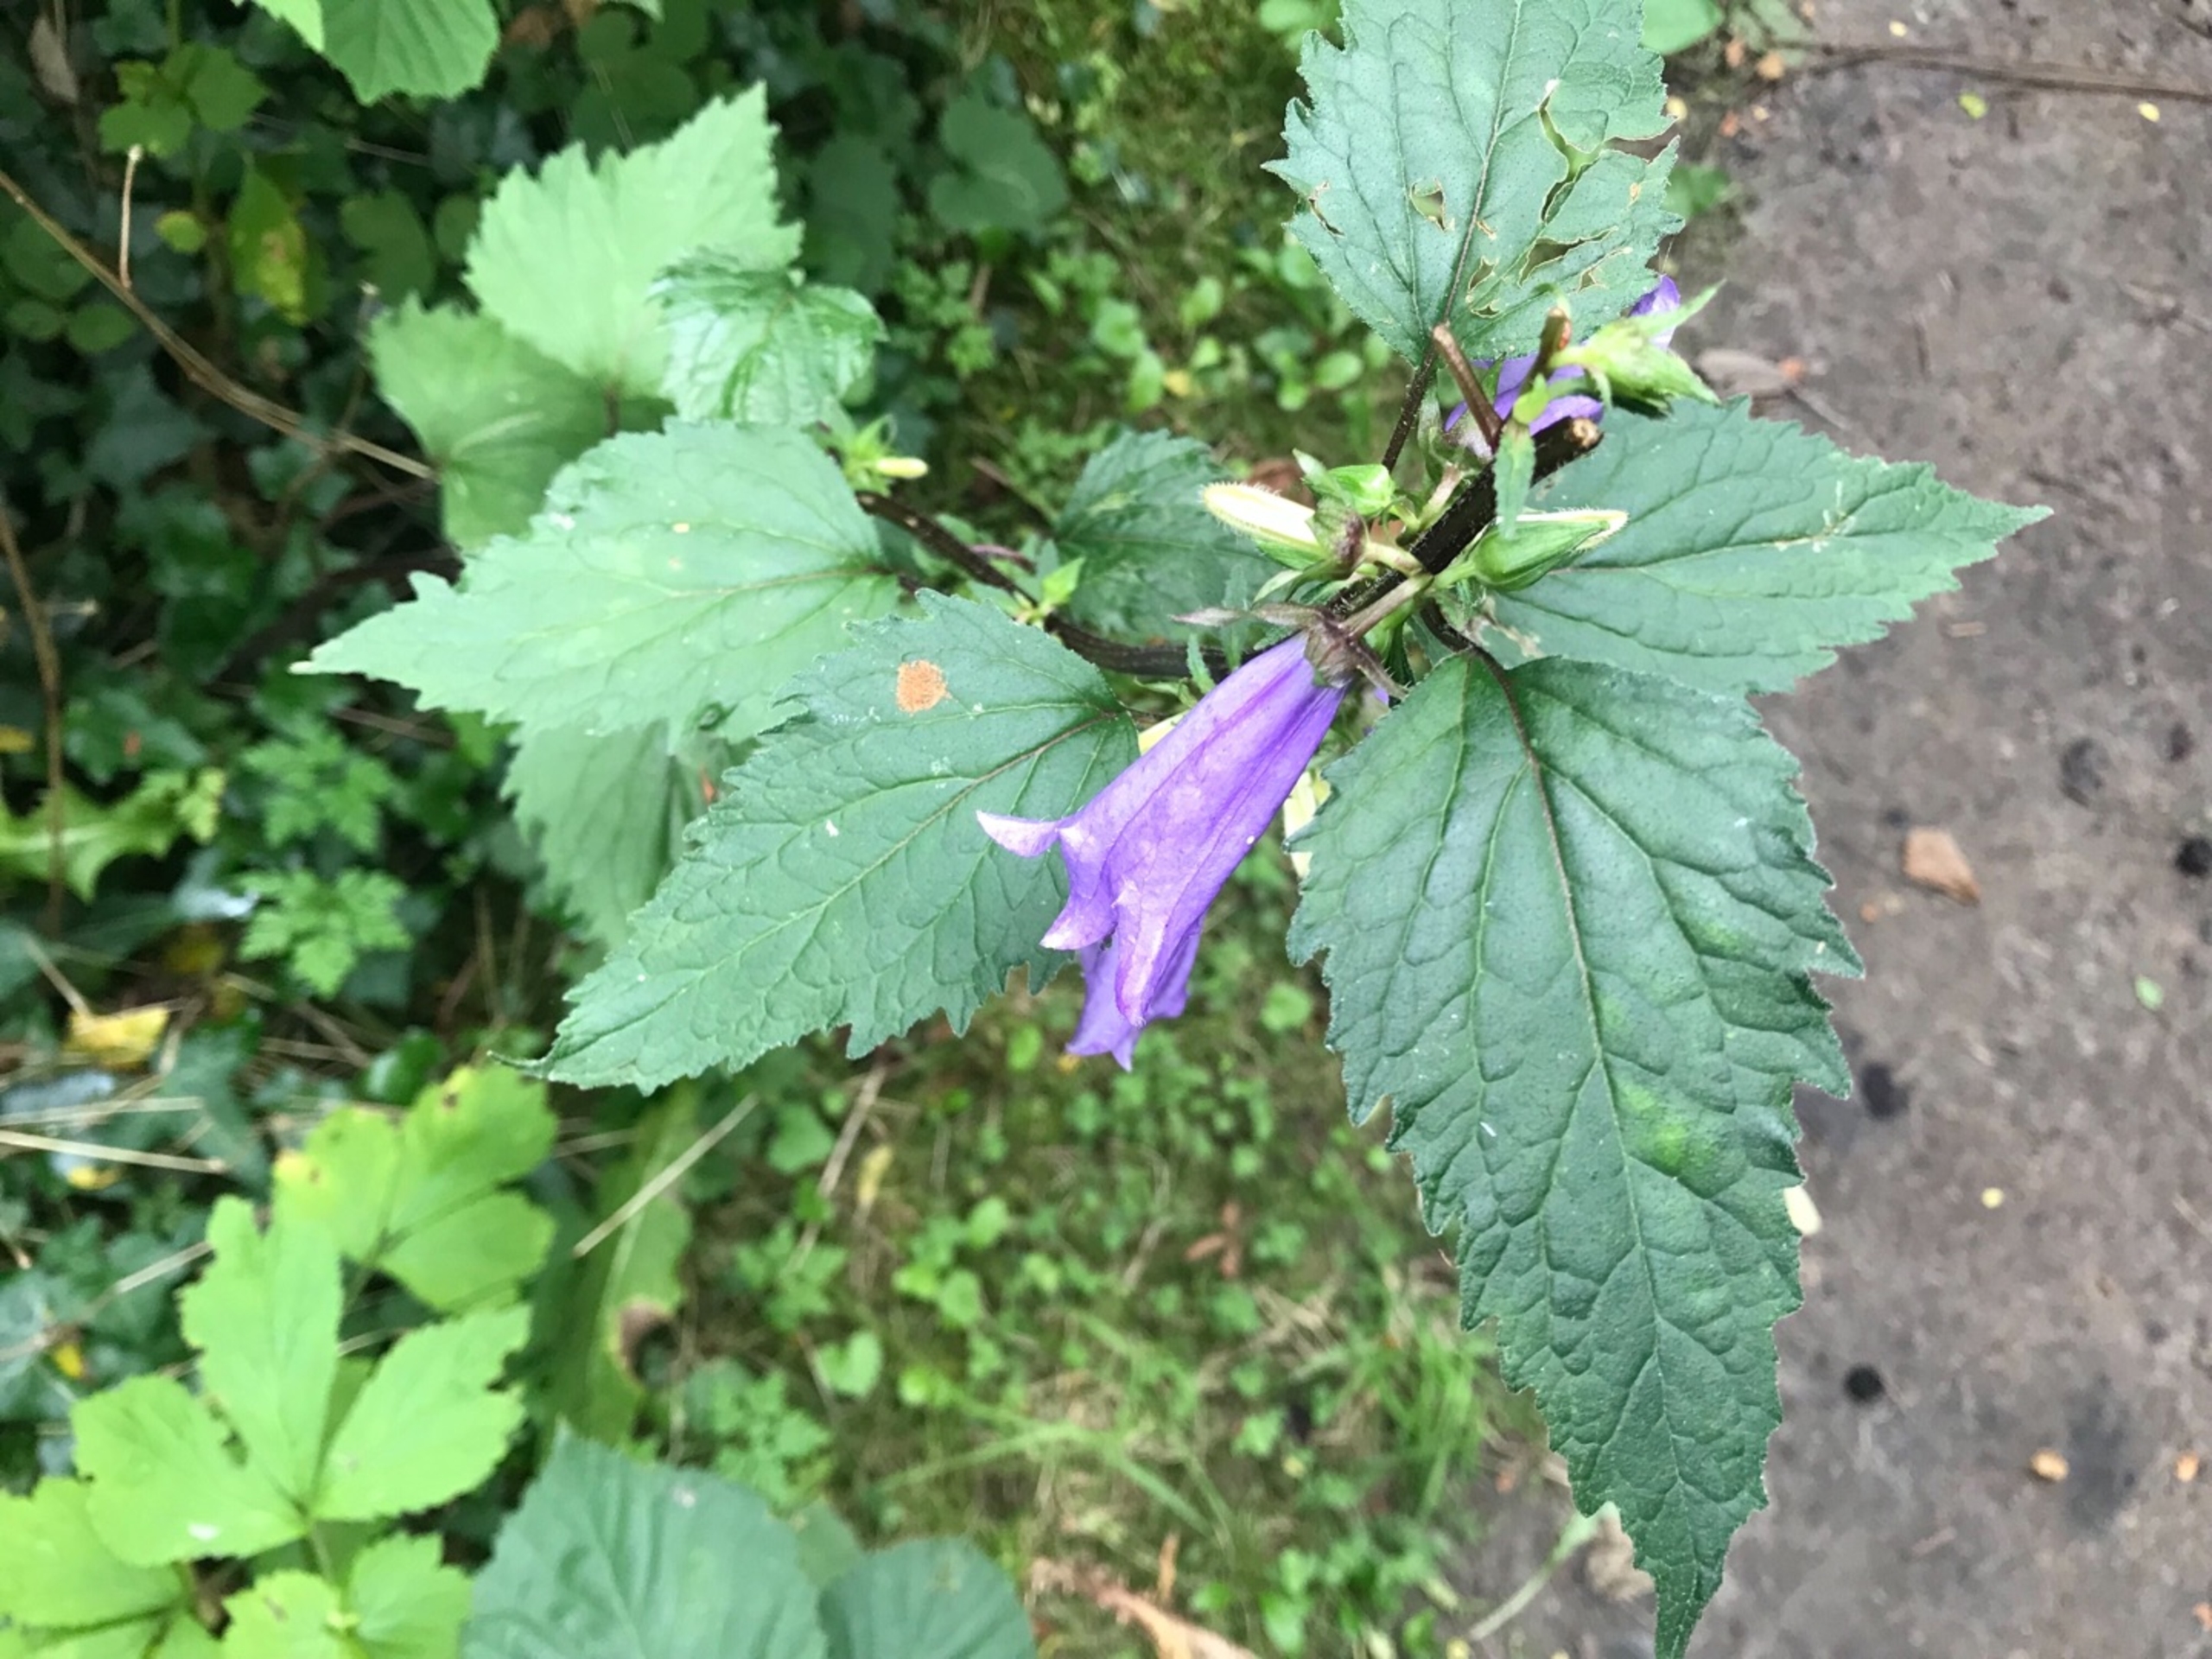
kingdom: Plantae
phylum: Tracheophyta
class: Magnoliopsida
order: Asterales
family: Campanulaceae
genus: Campanula
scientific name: Campanula trachelium
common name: Nælde-klokke
